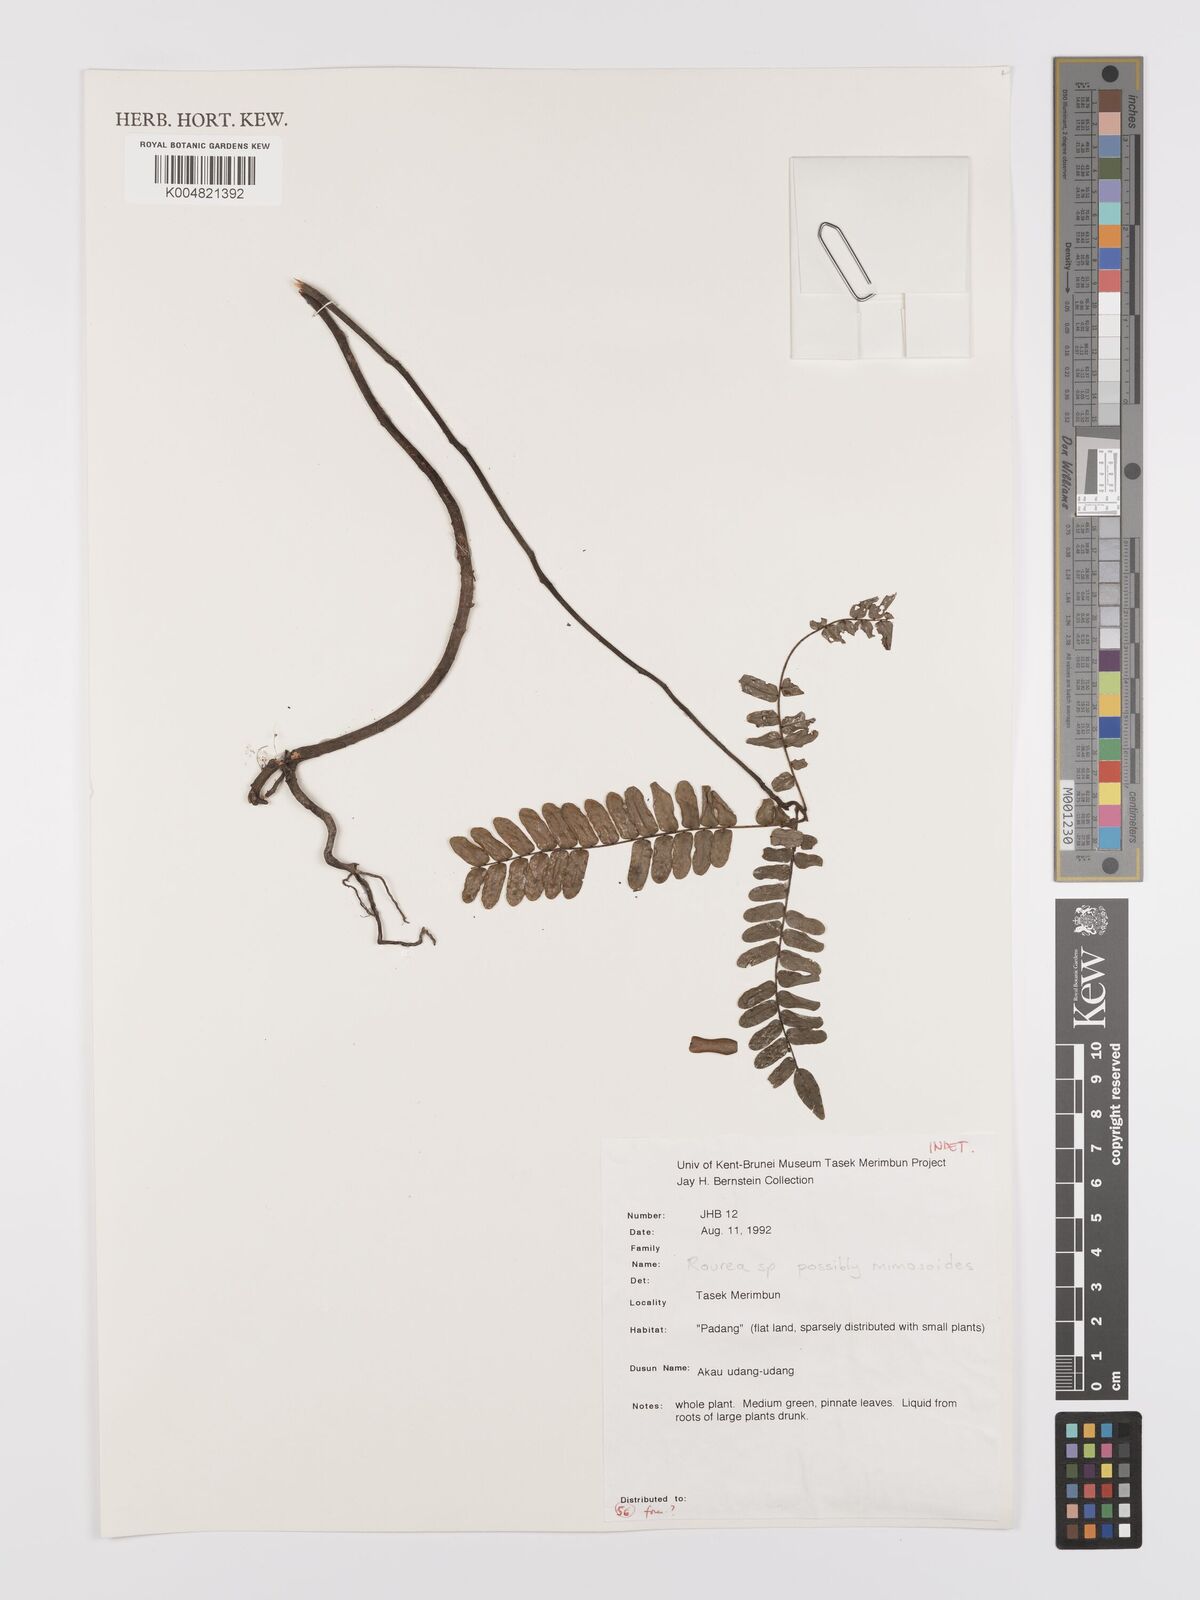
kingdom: Plantae
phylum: Tracheophyta
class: Magnoliopsida
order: Oxalidales
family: Connaraceae
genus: Rourea
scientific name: Rourea mimosoides
